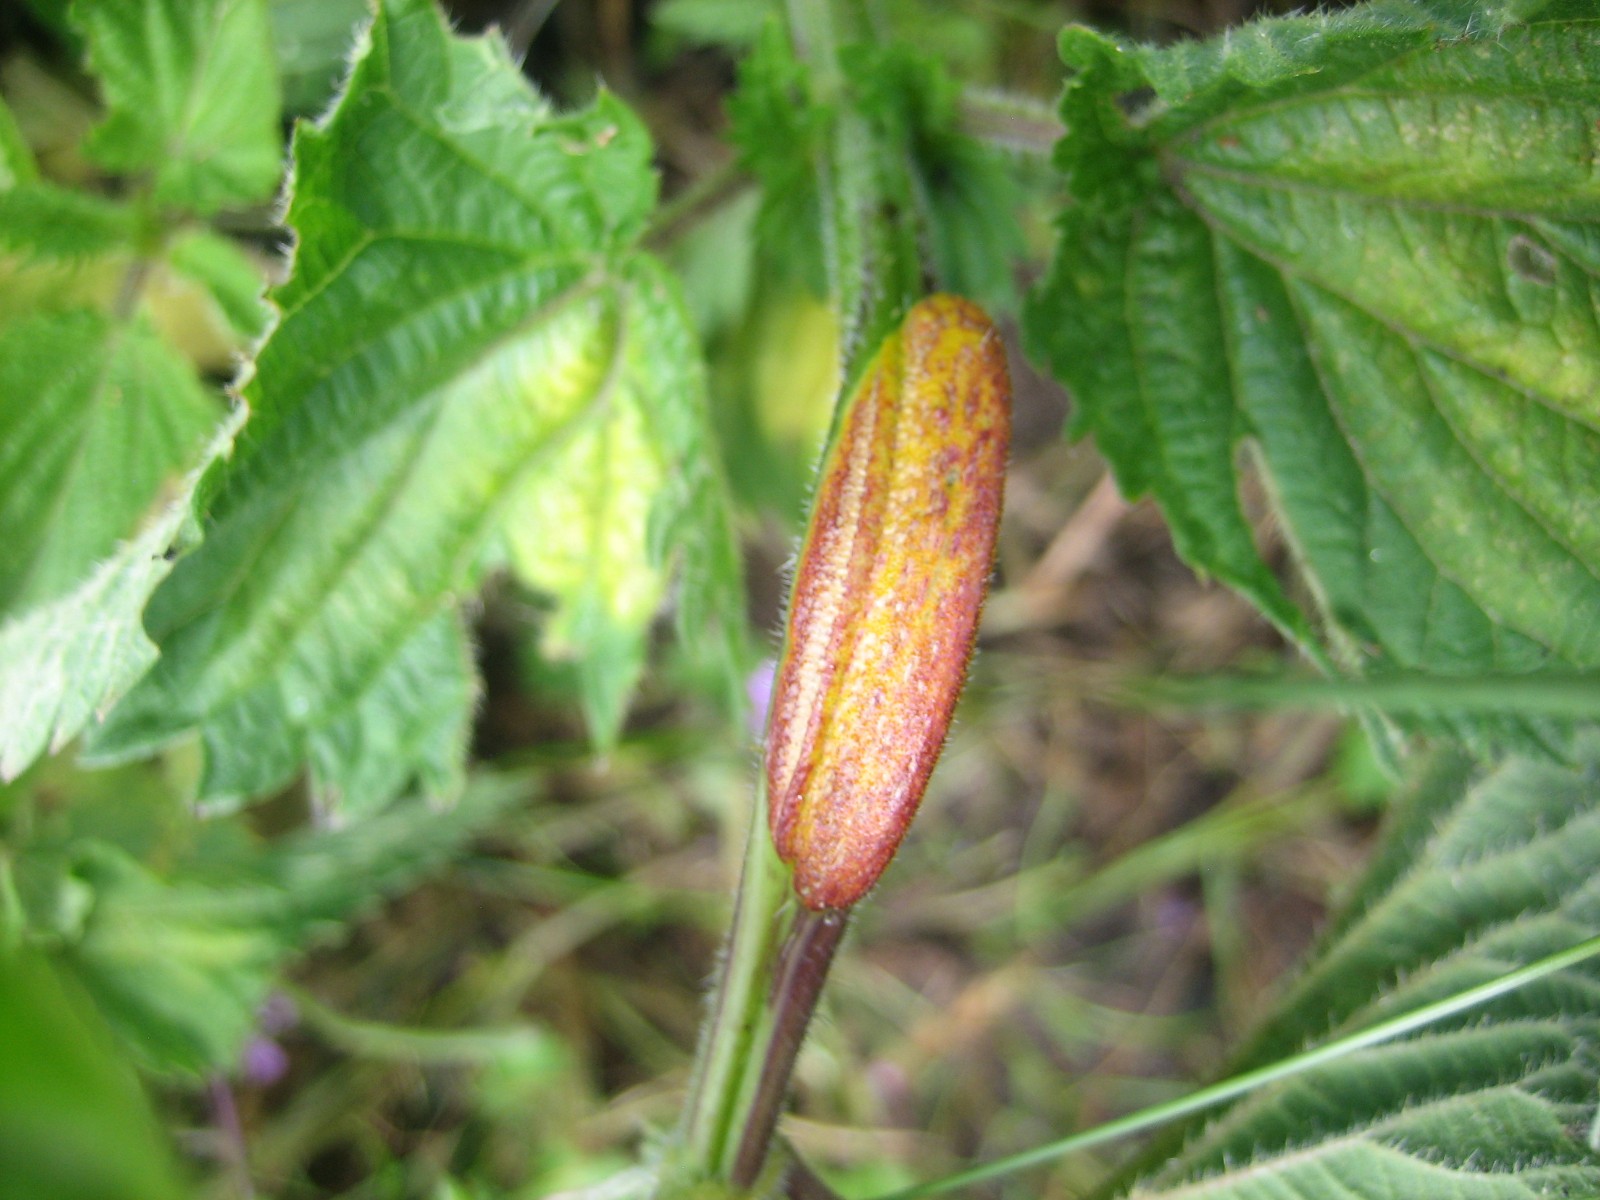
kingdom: Fungi
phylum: Basidiomycota
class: Pucciniomycetes
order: Pucciniales
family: Pucciniaceae
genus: Puccinia
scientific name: Puccinia urticata
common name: nældegalle-tvecellerust
